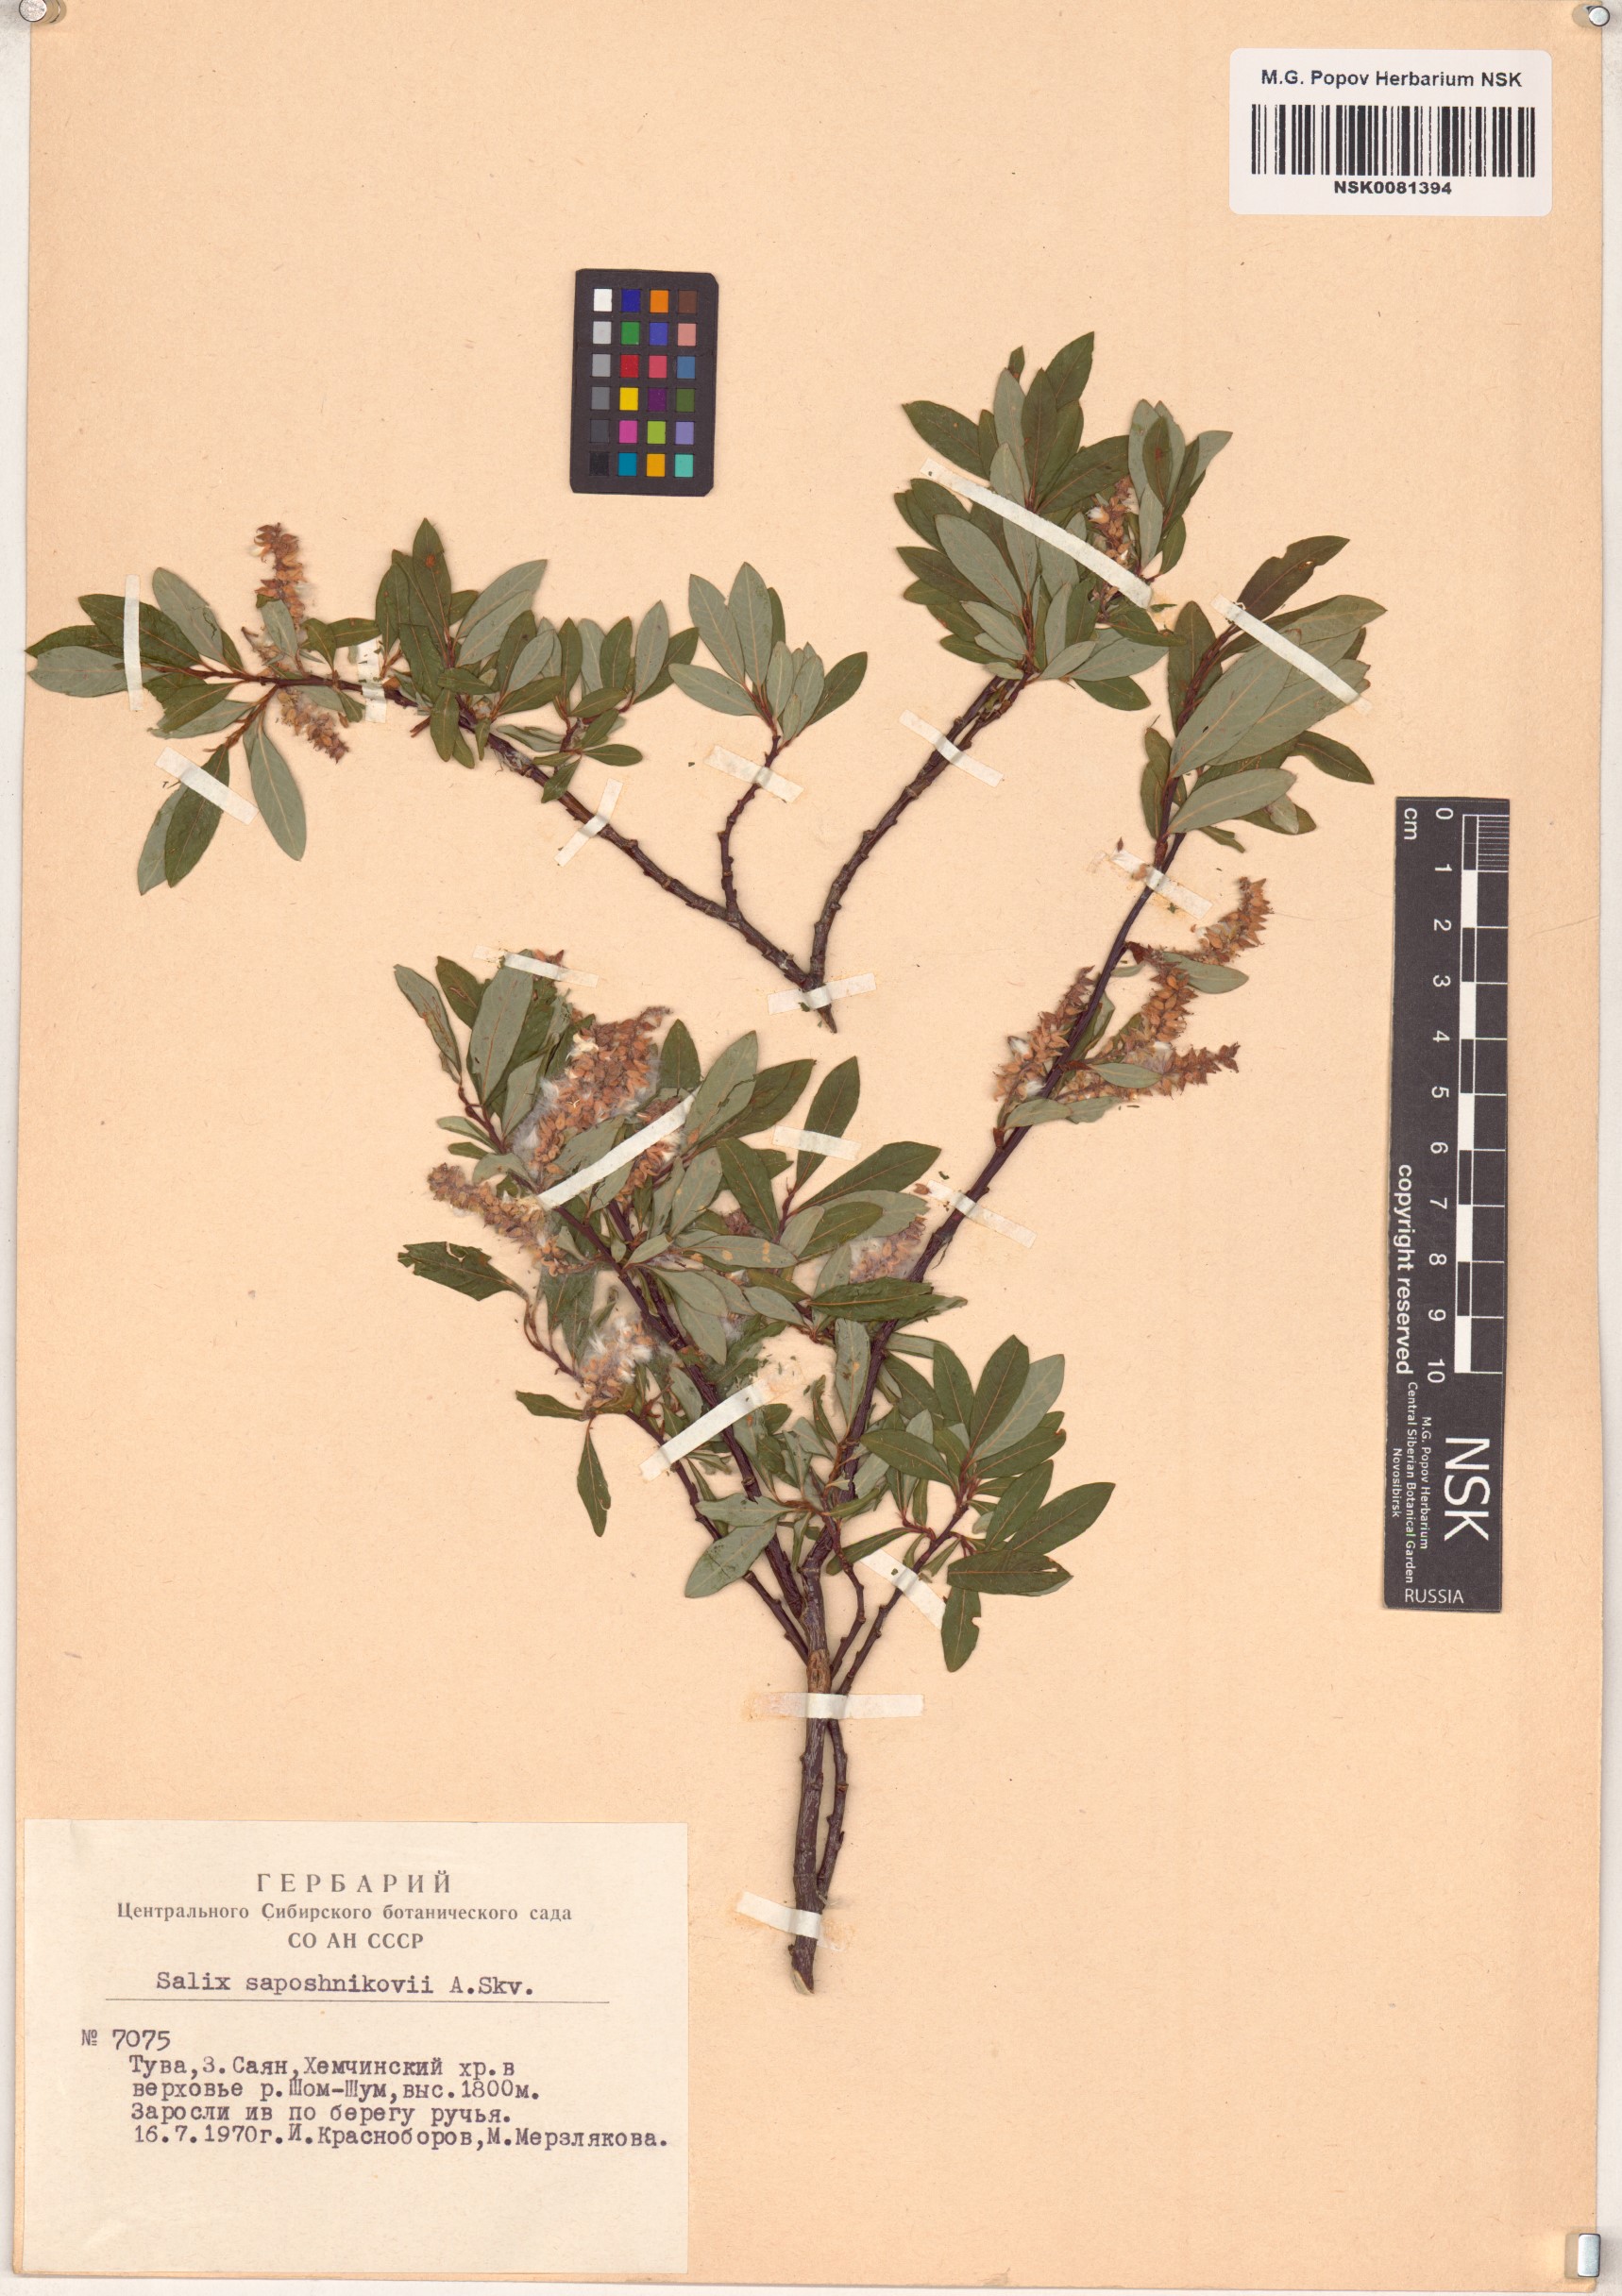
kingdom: Plantae
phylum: Tracheophyta
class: Magnoliopsida
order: Malpighiales
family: Salicaceae
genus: Salix
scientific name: Salix saposhnikovii
